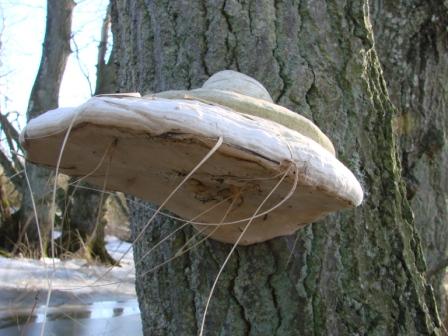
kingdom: Fungi
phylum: Basidiomycota
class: Agaricomycetes
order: Polyporales
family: Polyporaceae
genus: Fomes
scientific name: Fomes fomentarius
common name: tøndersvamp
